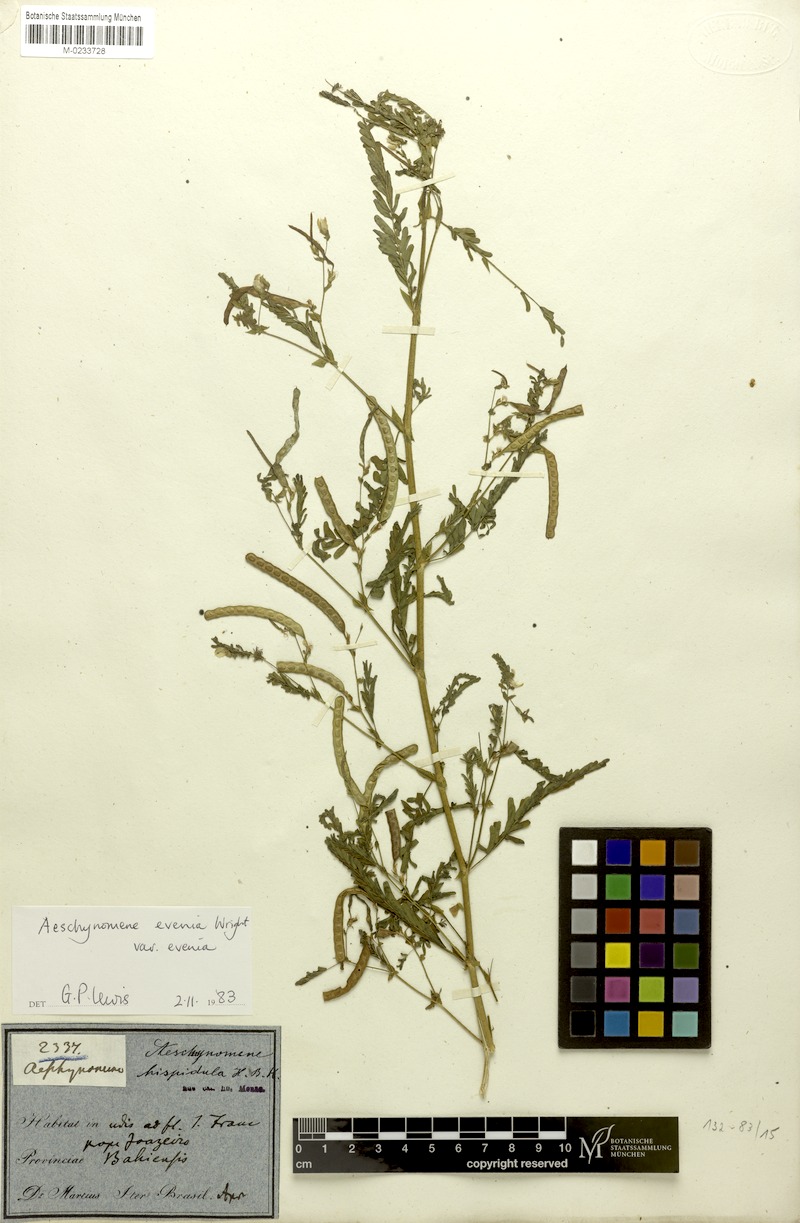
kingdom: Plantae
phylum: Tracheophyta
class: Magnoliopsida
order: Fabales
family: Fabaceae
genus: Aeschynomene
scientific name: Aeschynomene evenia
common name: Shrubby jointvetch
